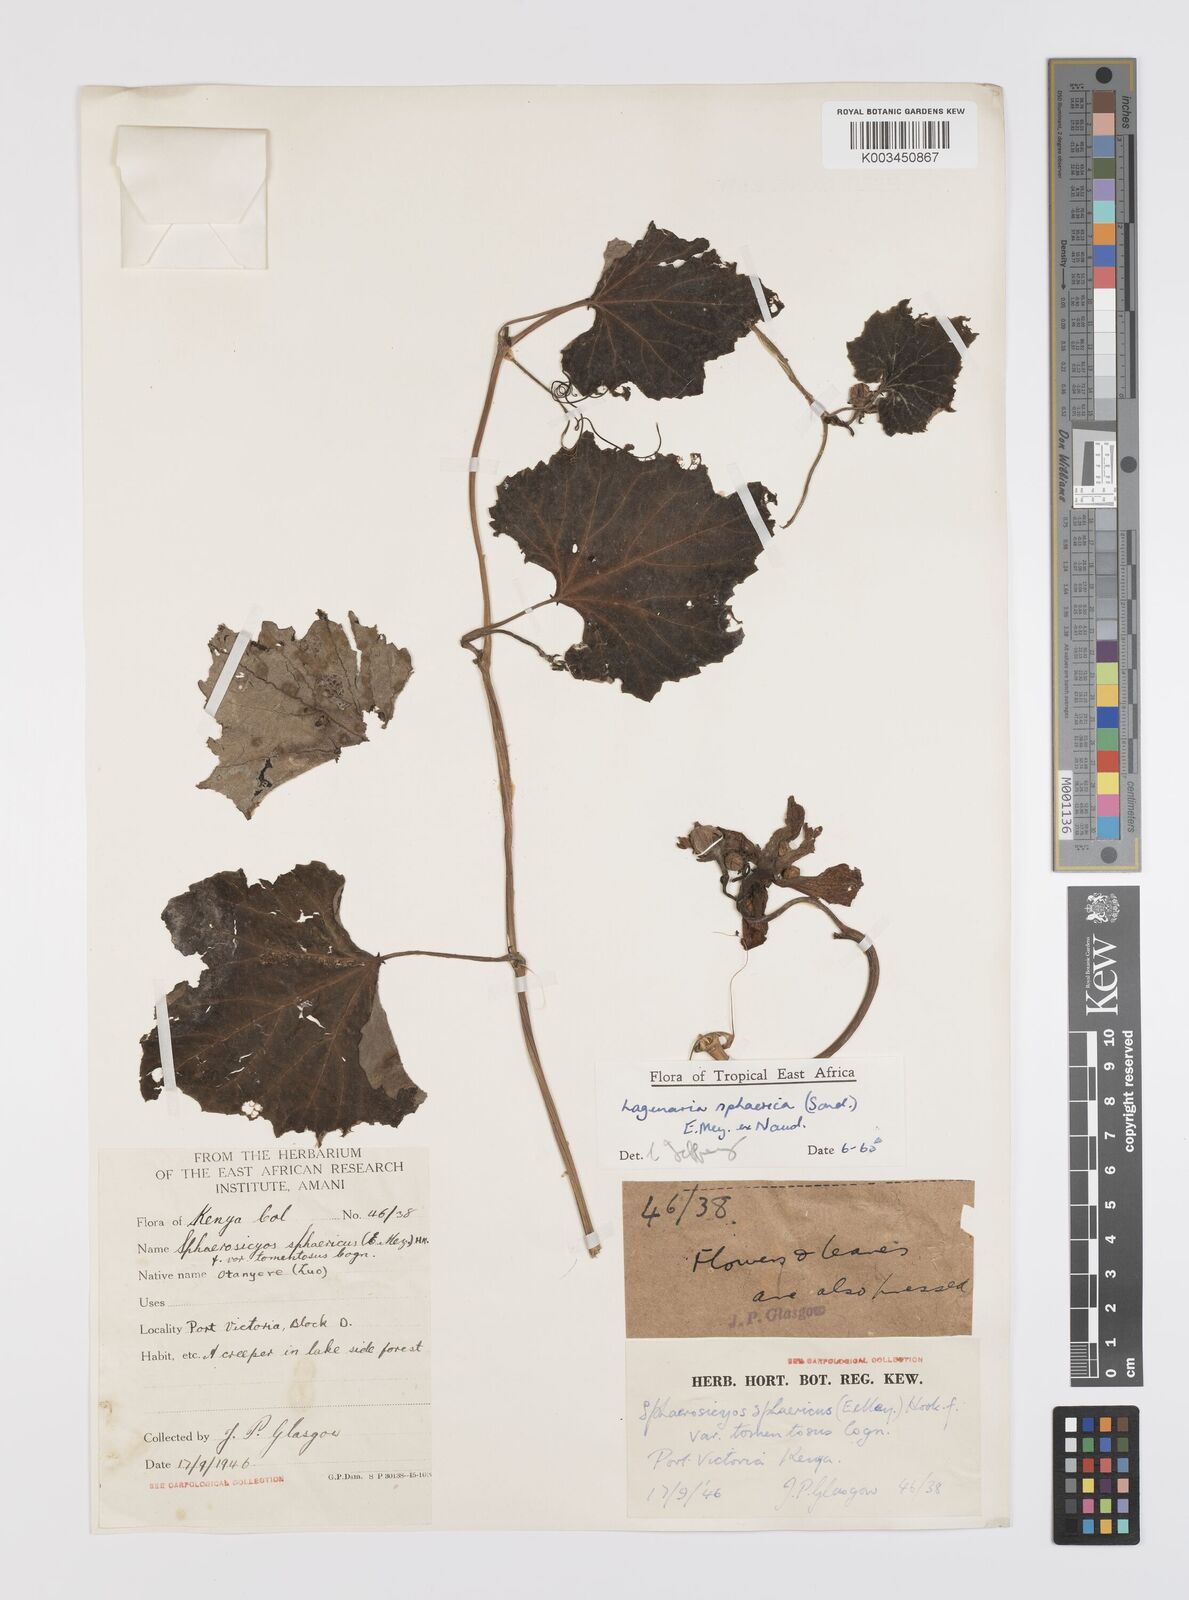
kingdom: Plantae
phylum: Tracheophyta
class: Magnoliopsida
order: Cucurbitales
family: Cucurbitaceae
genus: Lagenaria
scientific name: Lagenaria sphaerica
